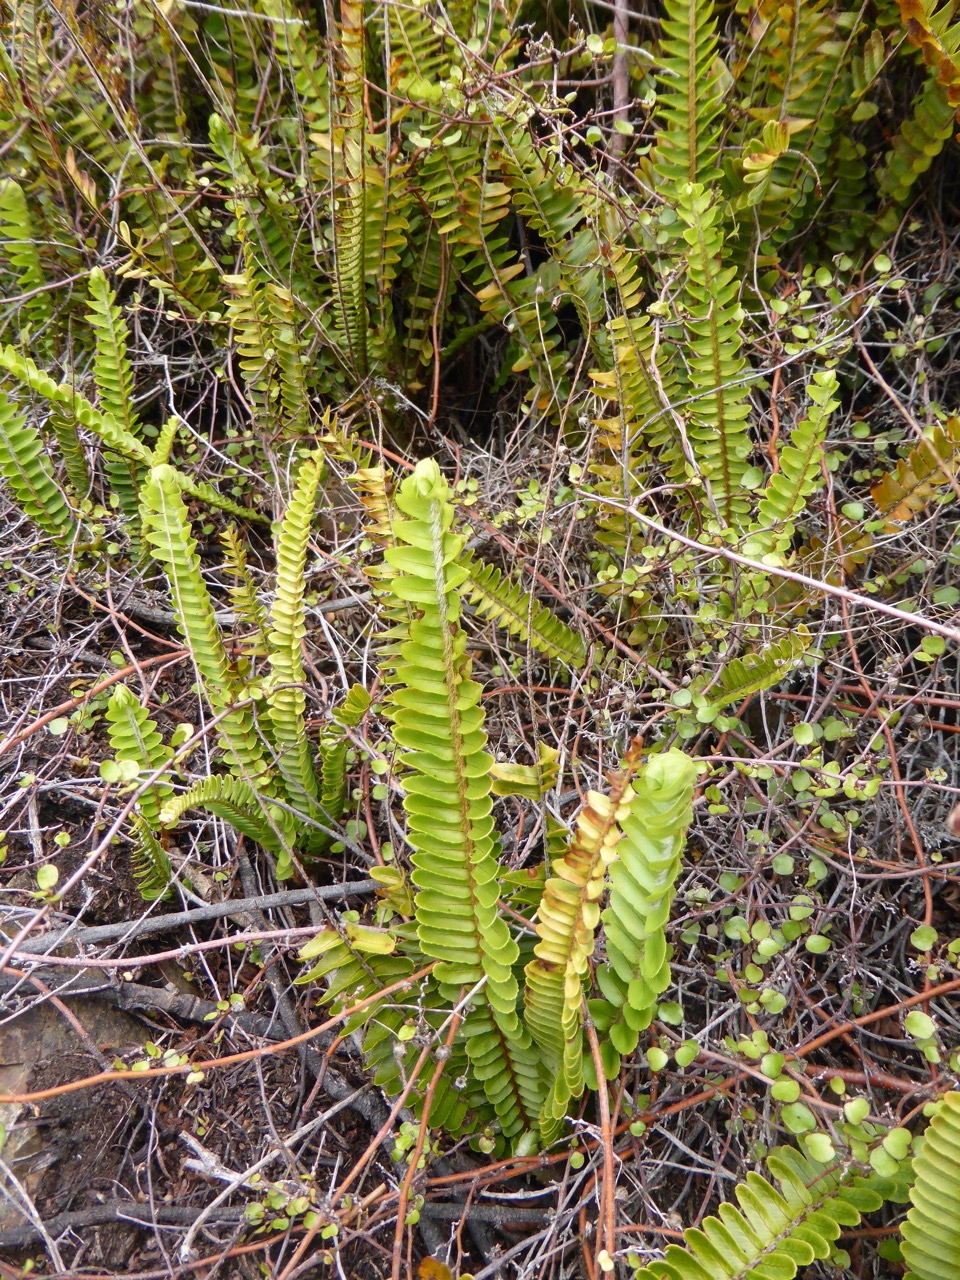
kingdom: Plantae
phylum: Tracheophyta
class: Polypodiopsida
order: Polypodiales
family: Nephrolepidaceae
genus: Nephrolepis
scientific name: Nephrolepis cordifolia
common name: Narrow swordfern
